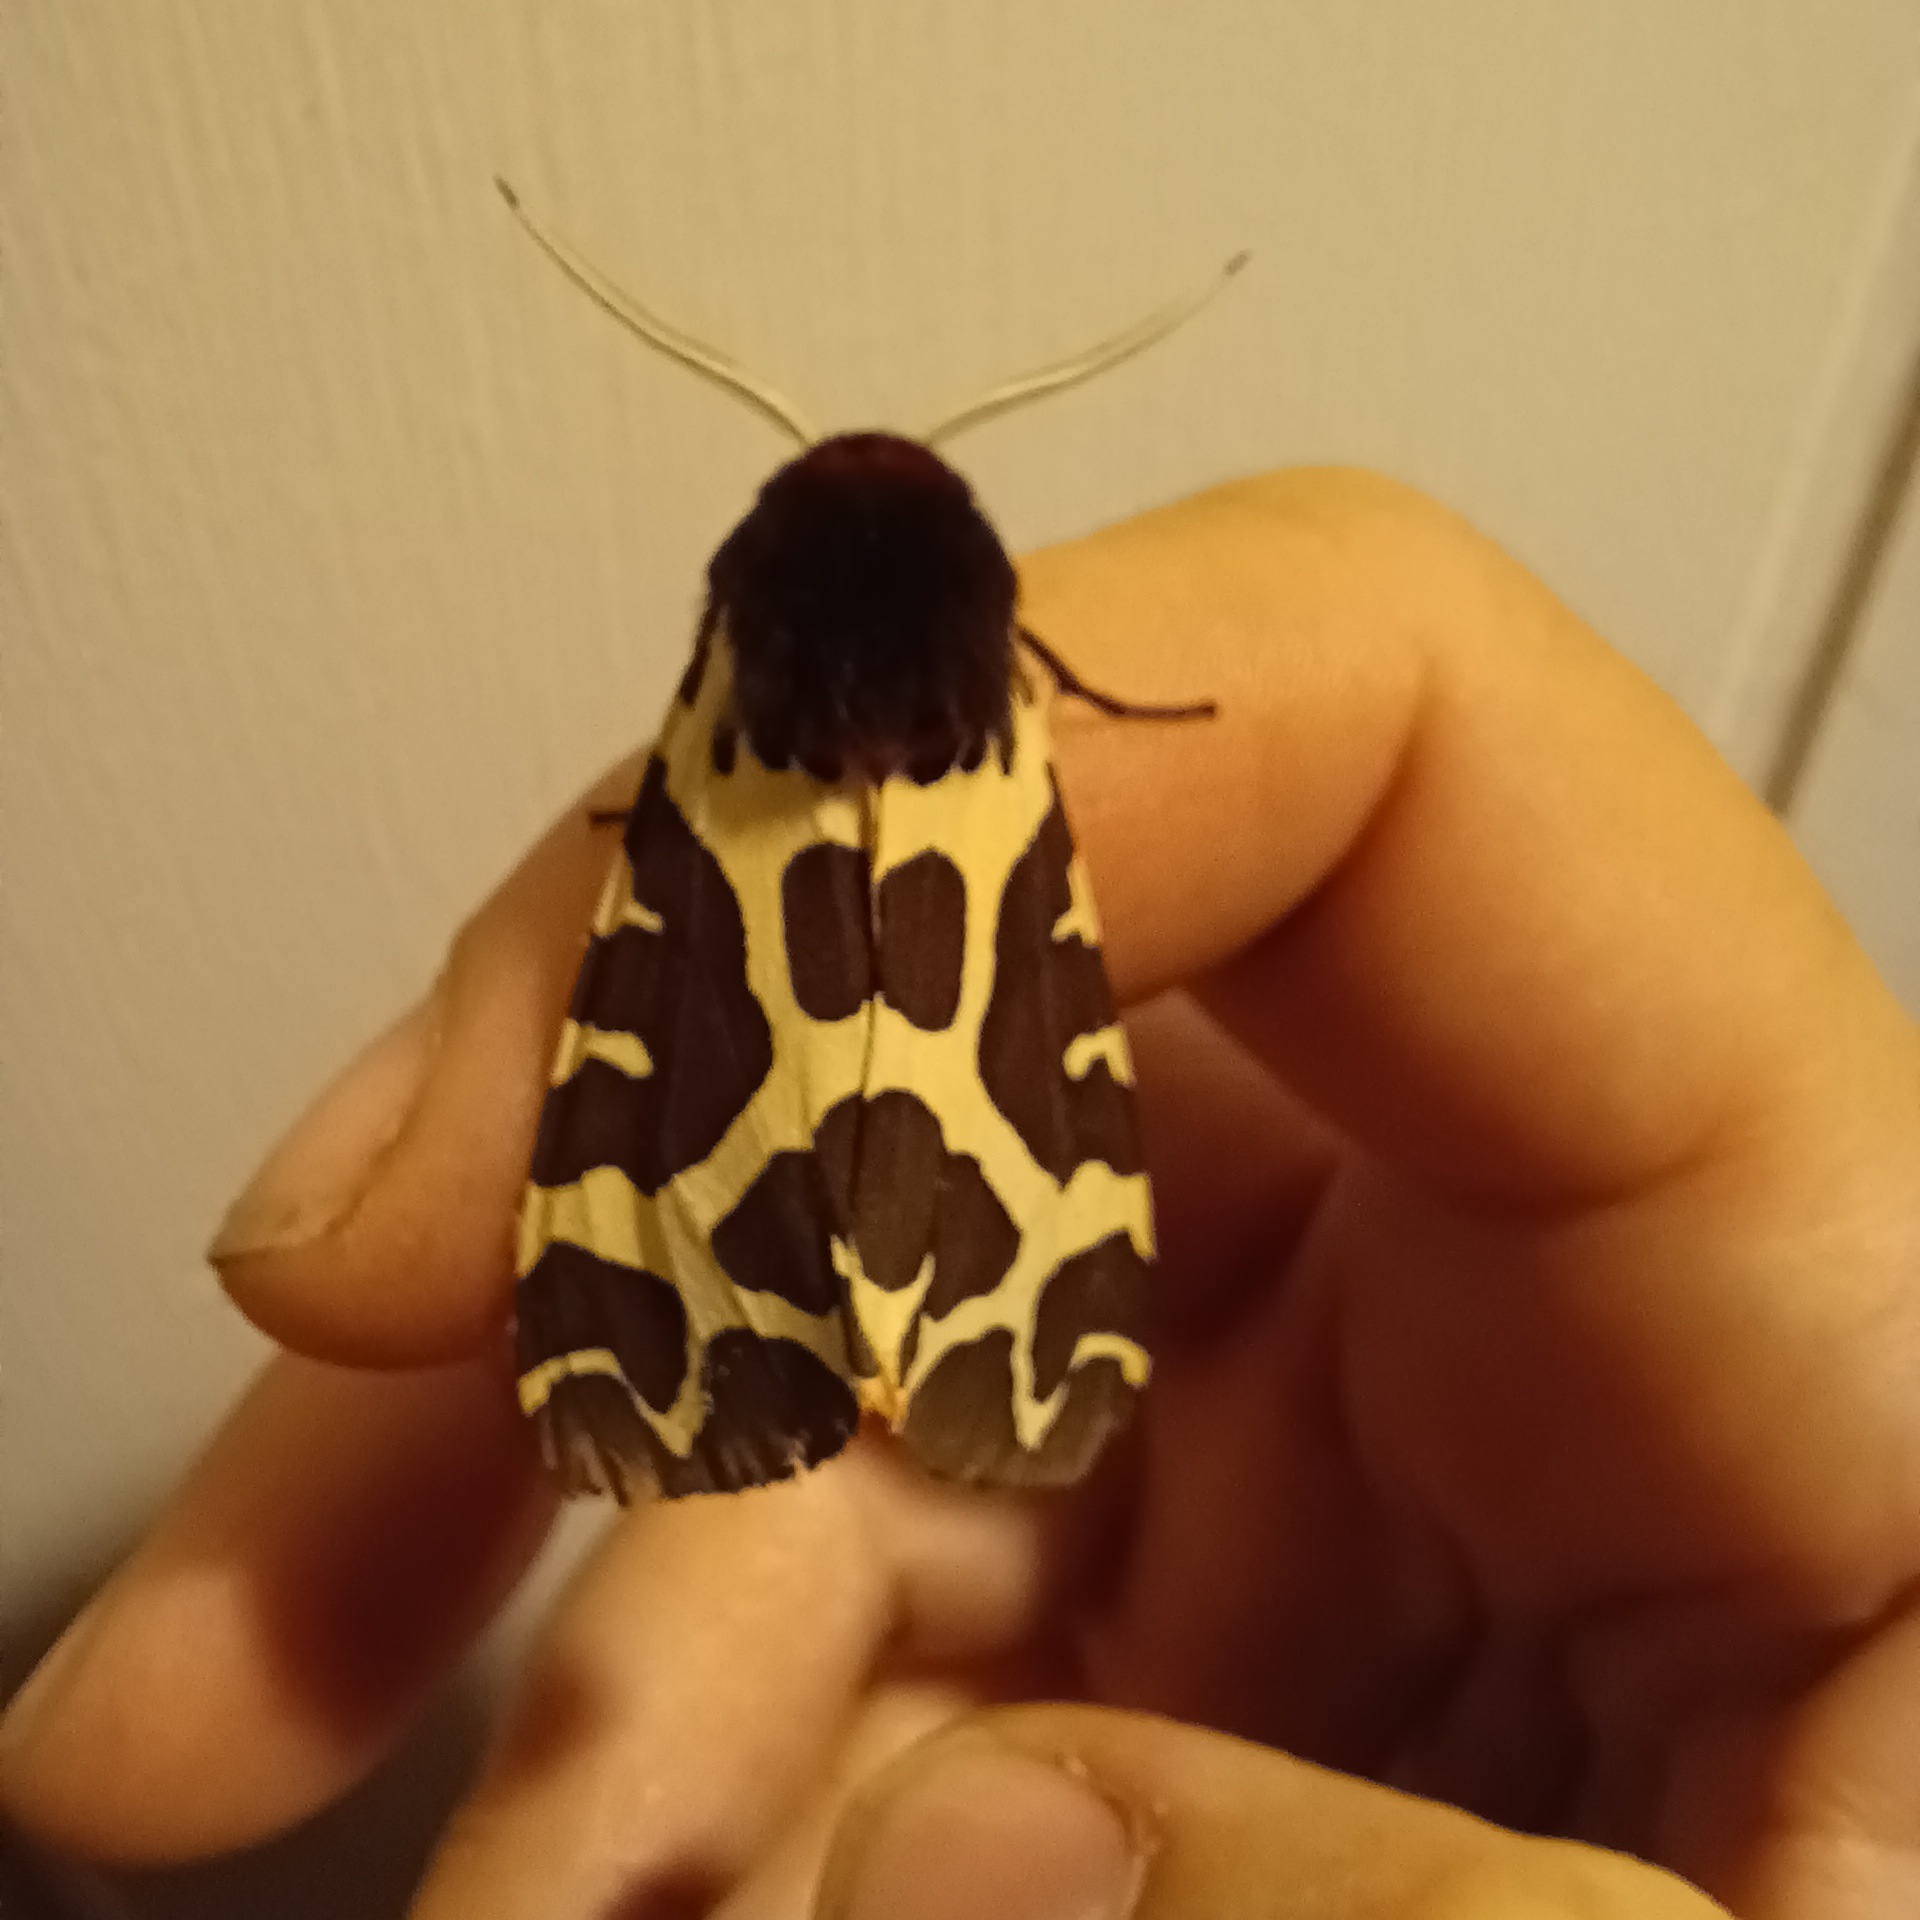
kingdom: Animalia
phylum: Arthropoda
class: Insecta
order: Lepidoptera
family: Erebidae
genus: Arctia
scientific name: Arctia caja
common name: Brun bjørn
